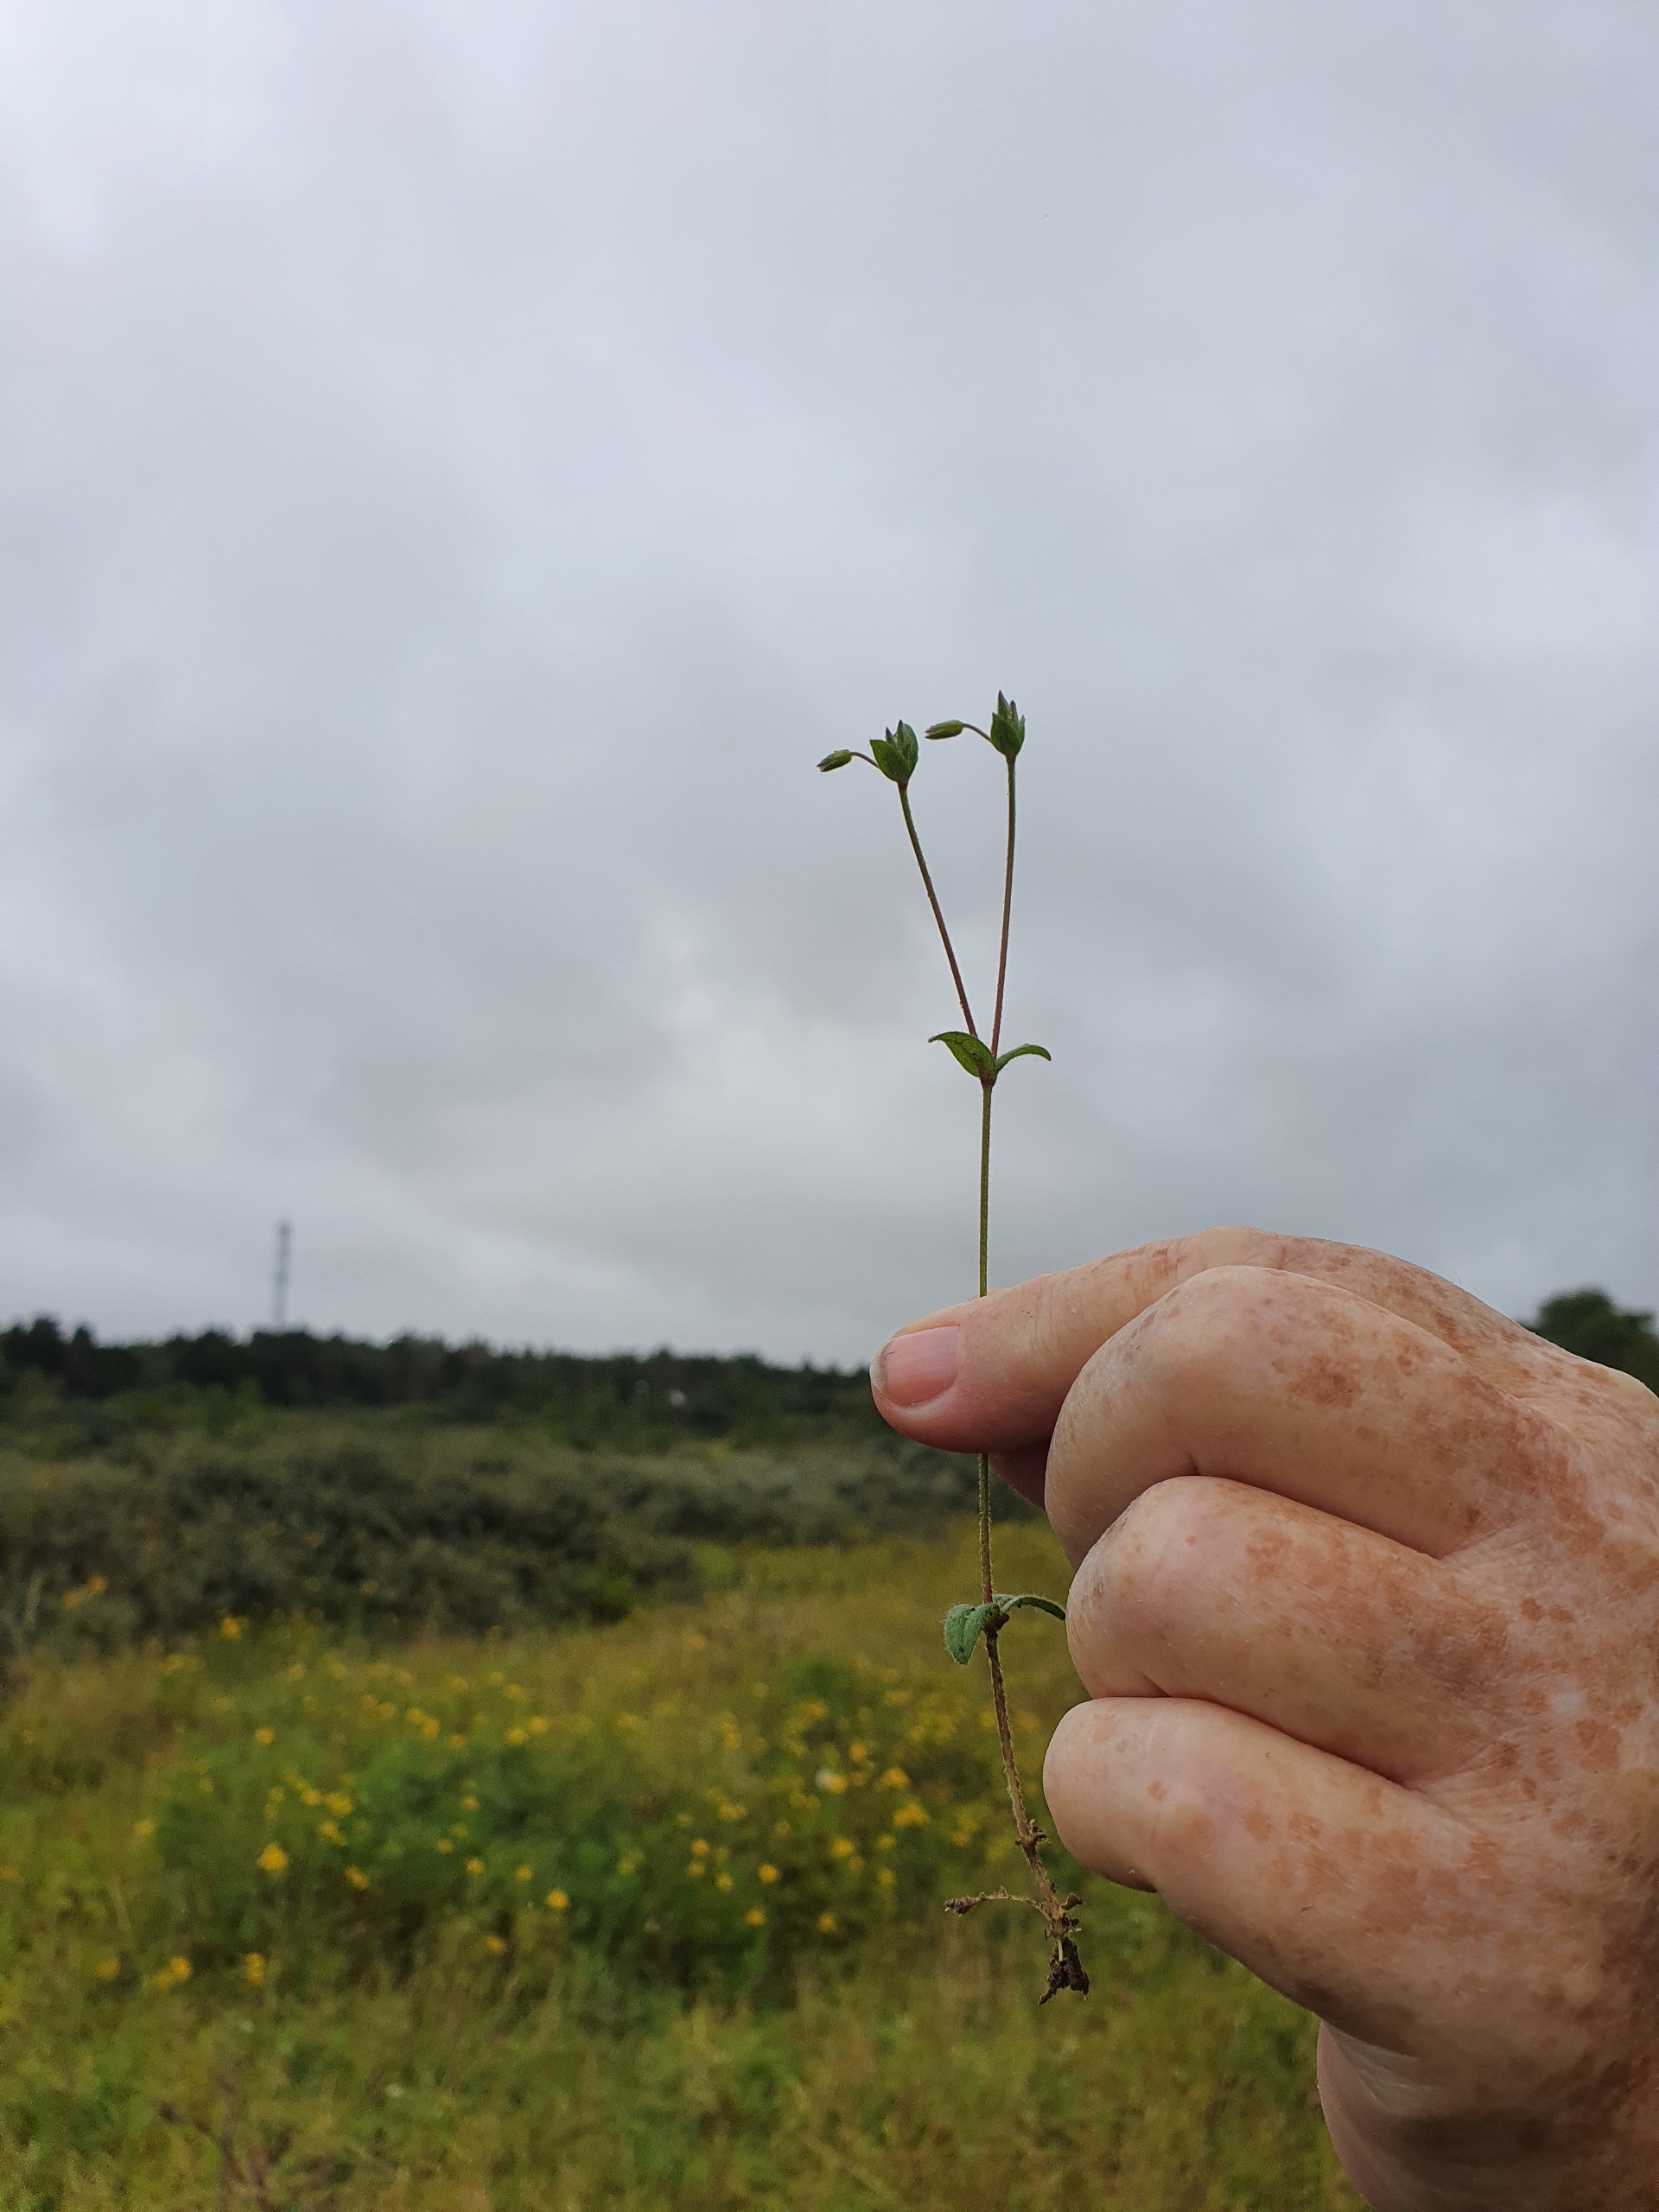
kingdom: Plantae
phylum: Tracheophyta
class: Magnoliopsida
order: Caryophyllales
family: Caryophyllaceae
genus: Cerastium
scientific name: Cerastium fontanum
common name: Almindelig hønsetarm
